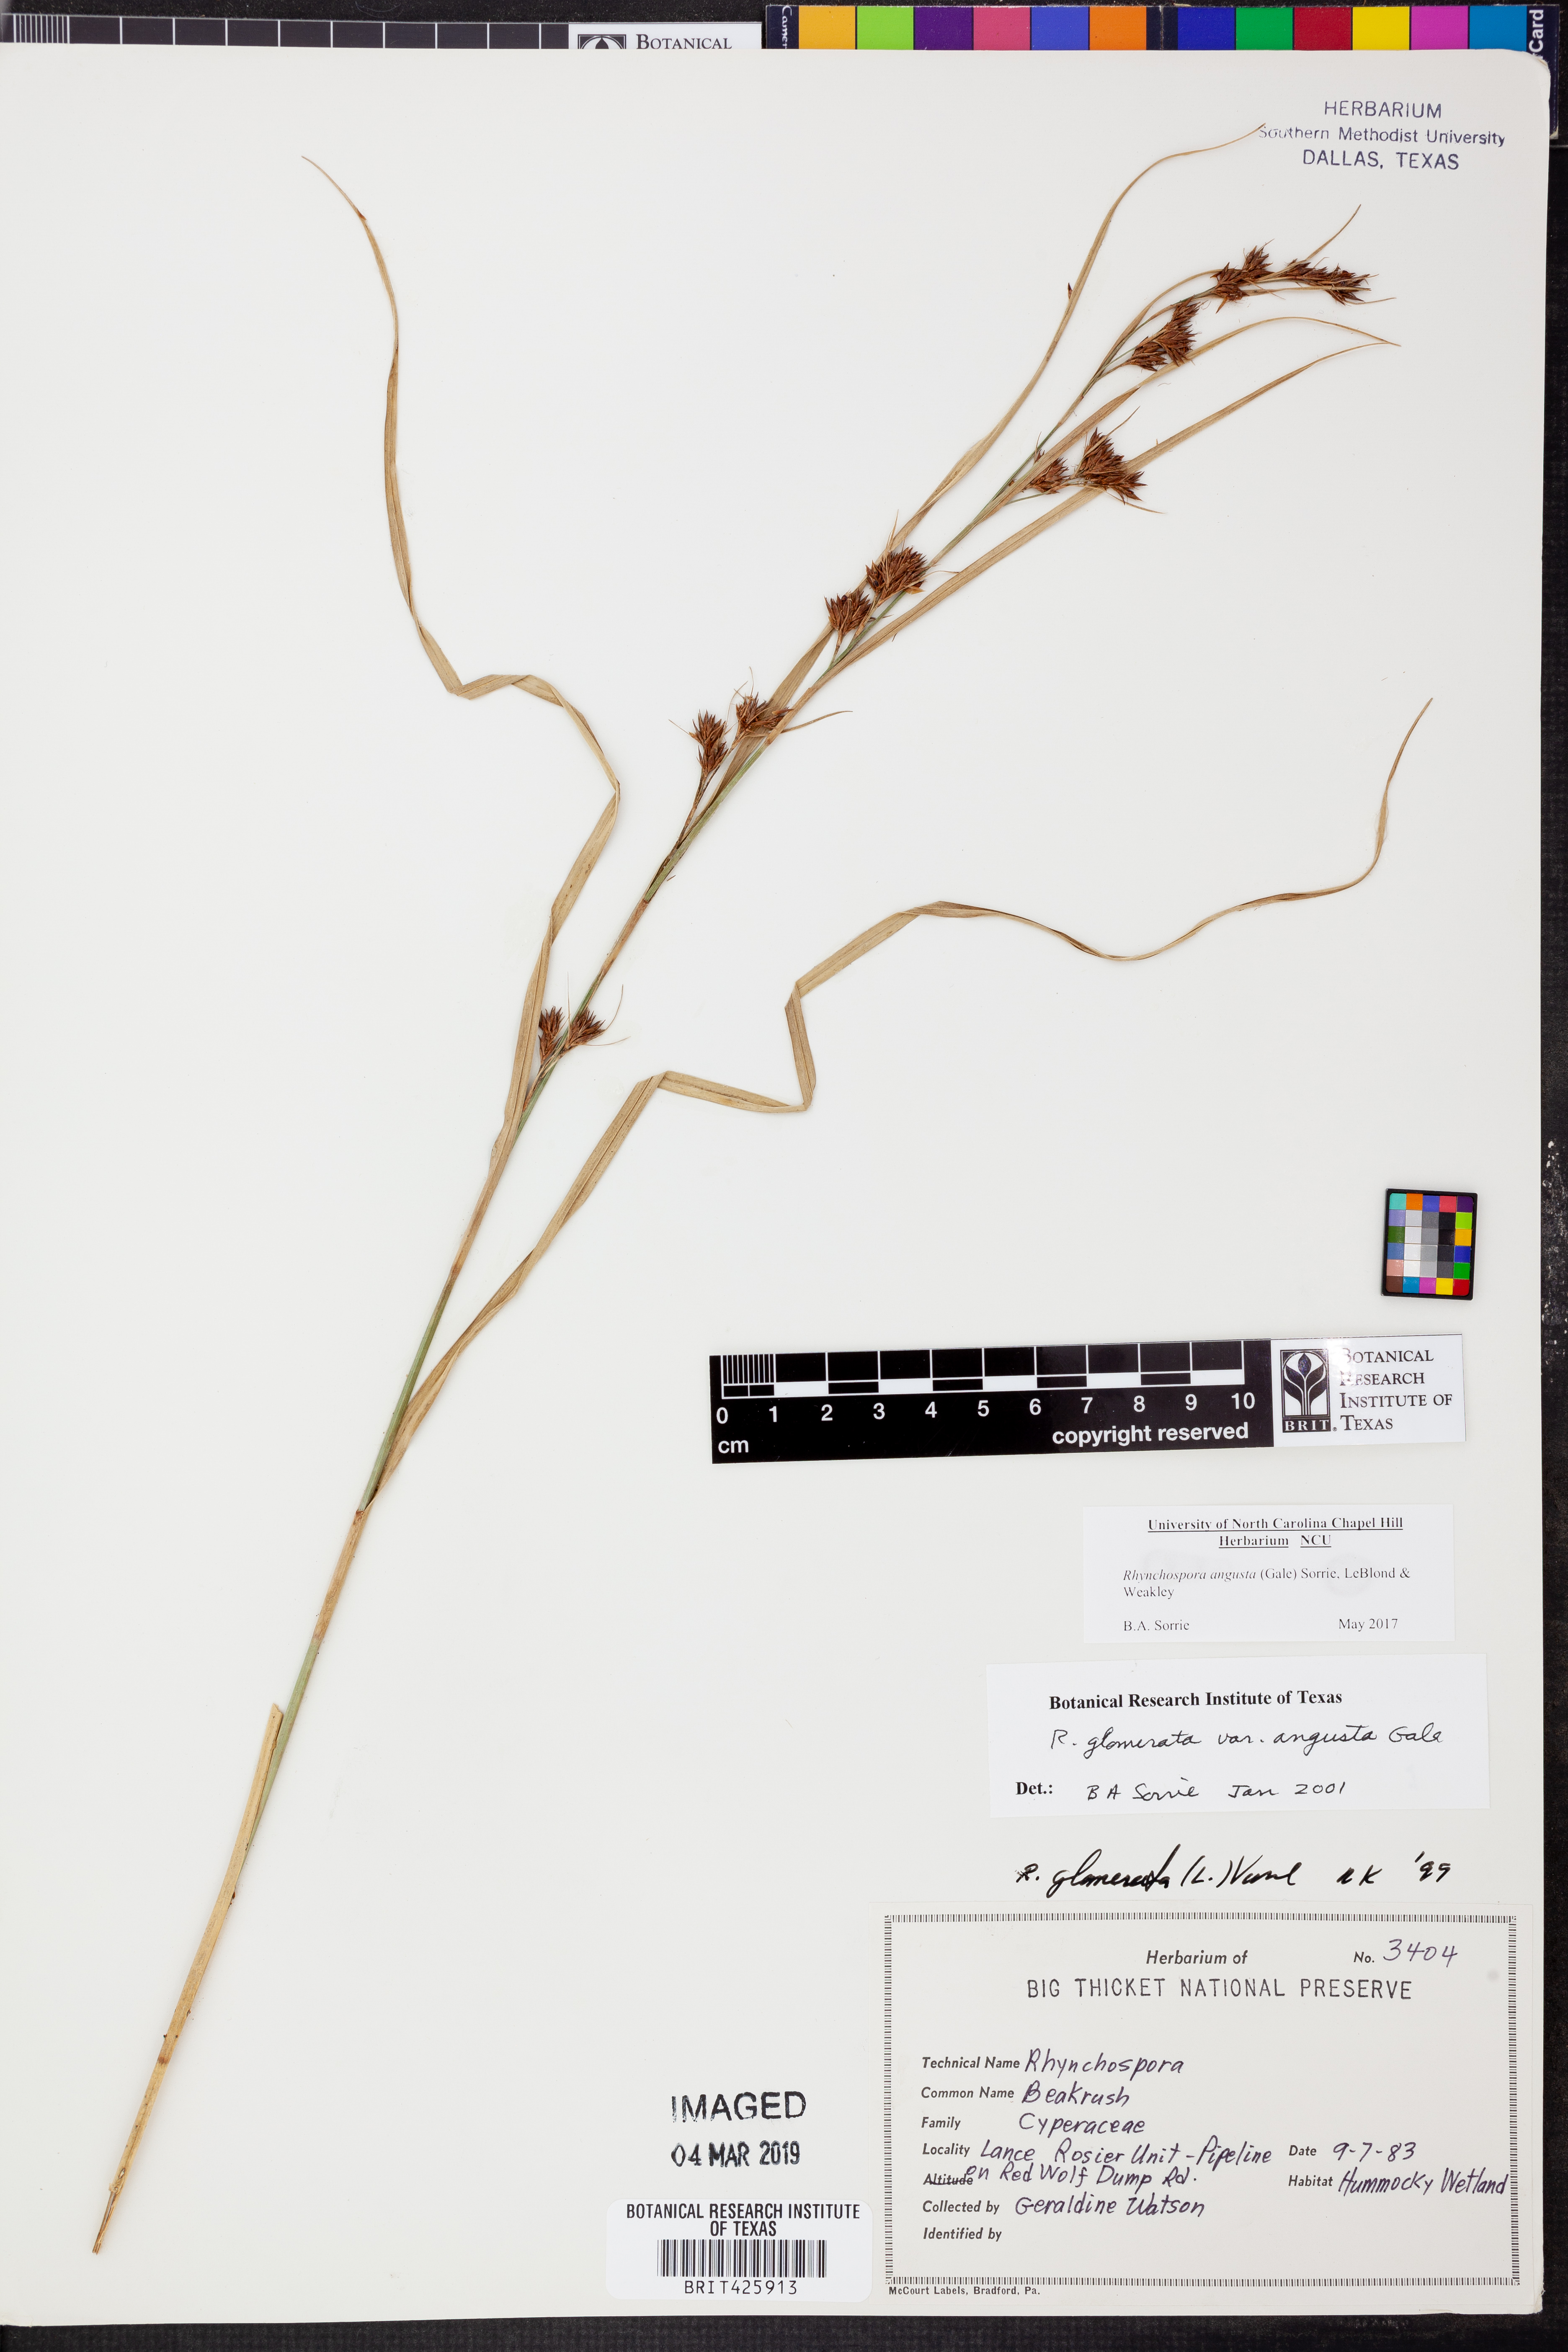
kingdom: Plantae
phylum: Tracheophyta
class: Liliopsida
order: Poales
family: Cyperaceae
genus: Rhynchospora
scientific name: Rhynchospora angusta
